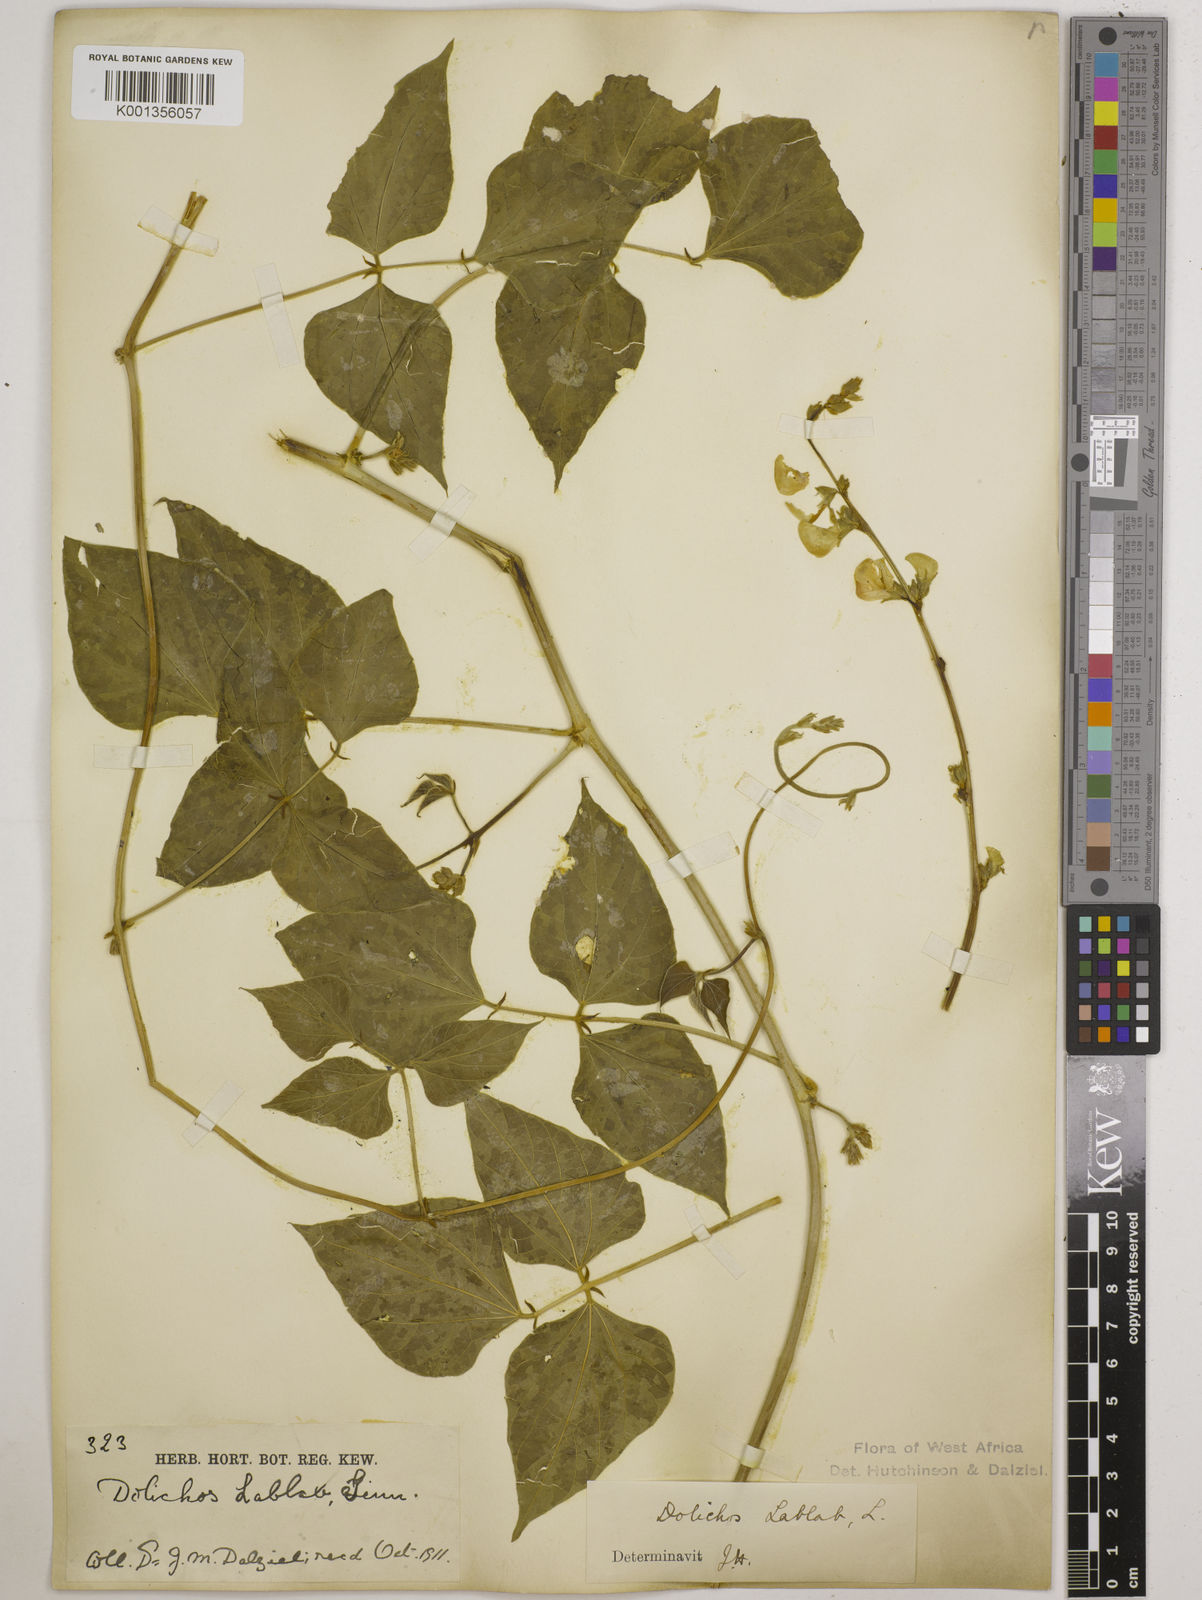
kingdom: Plantae
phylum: Tracheophyta
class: Magnoliopsida
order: Fabales
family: Fabaceae
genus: Lablab
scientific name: Lablab purpureus
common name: Lablab-bean
